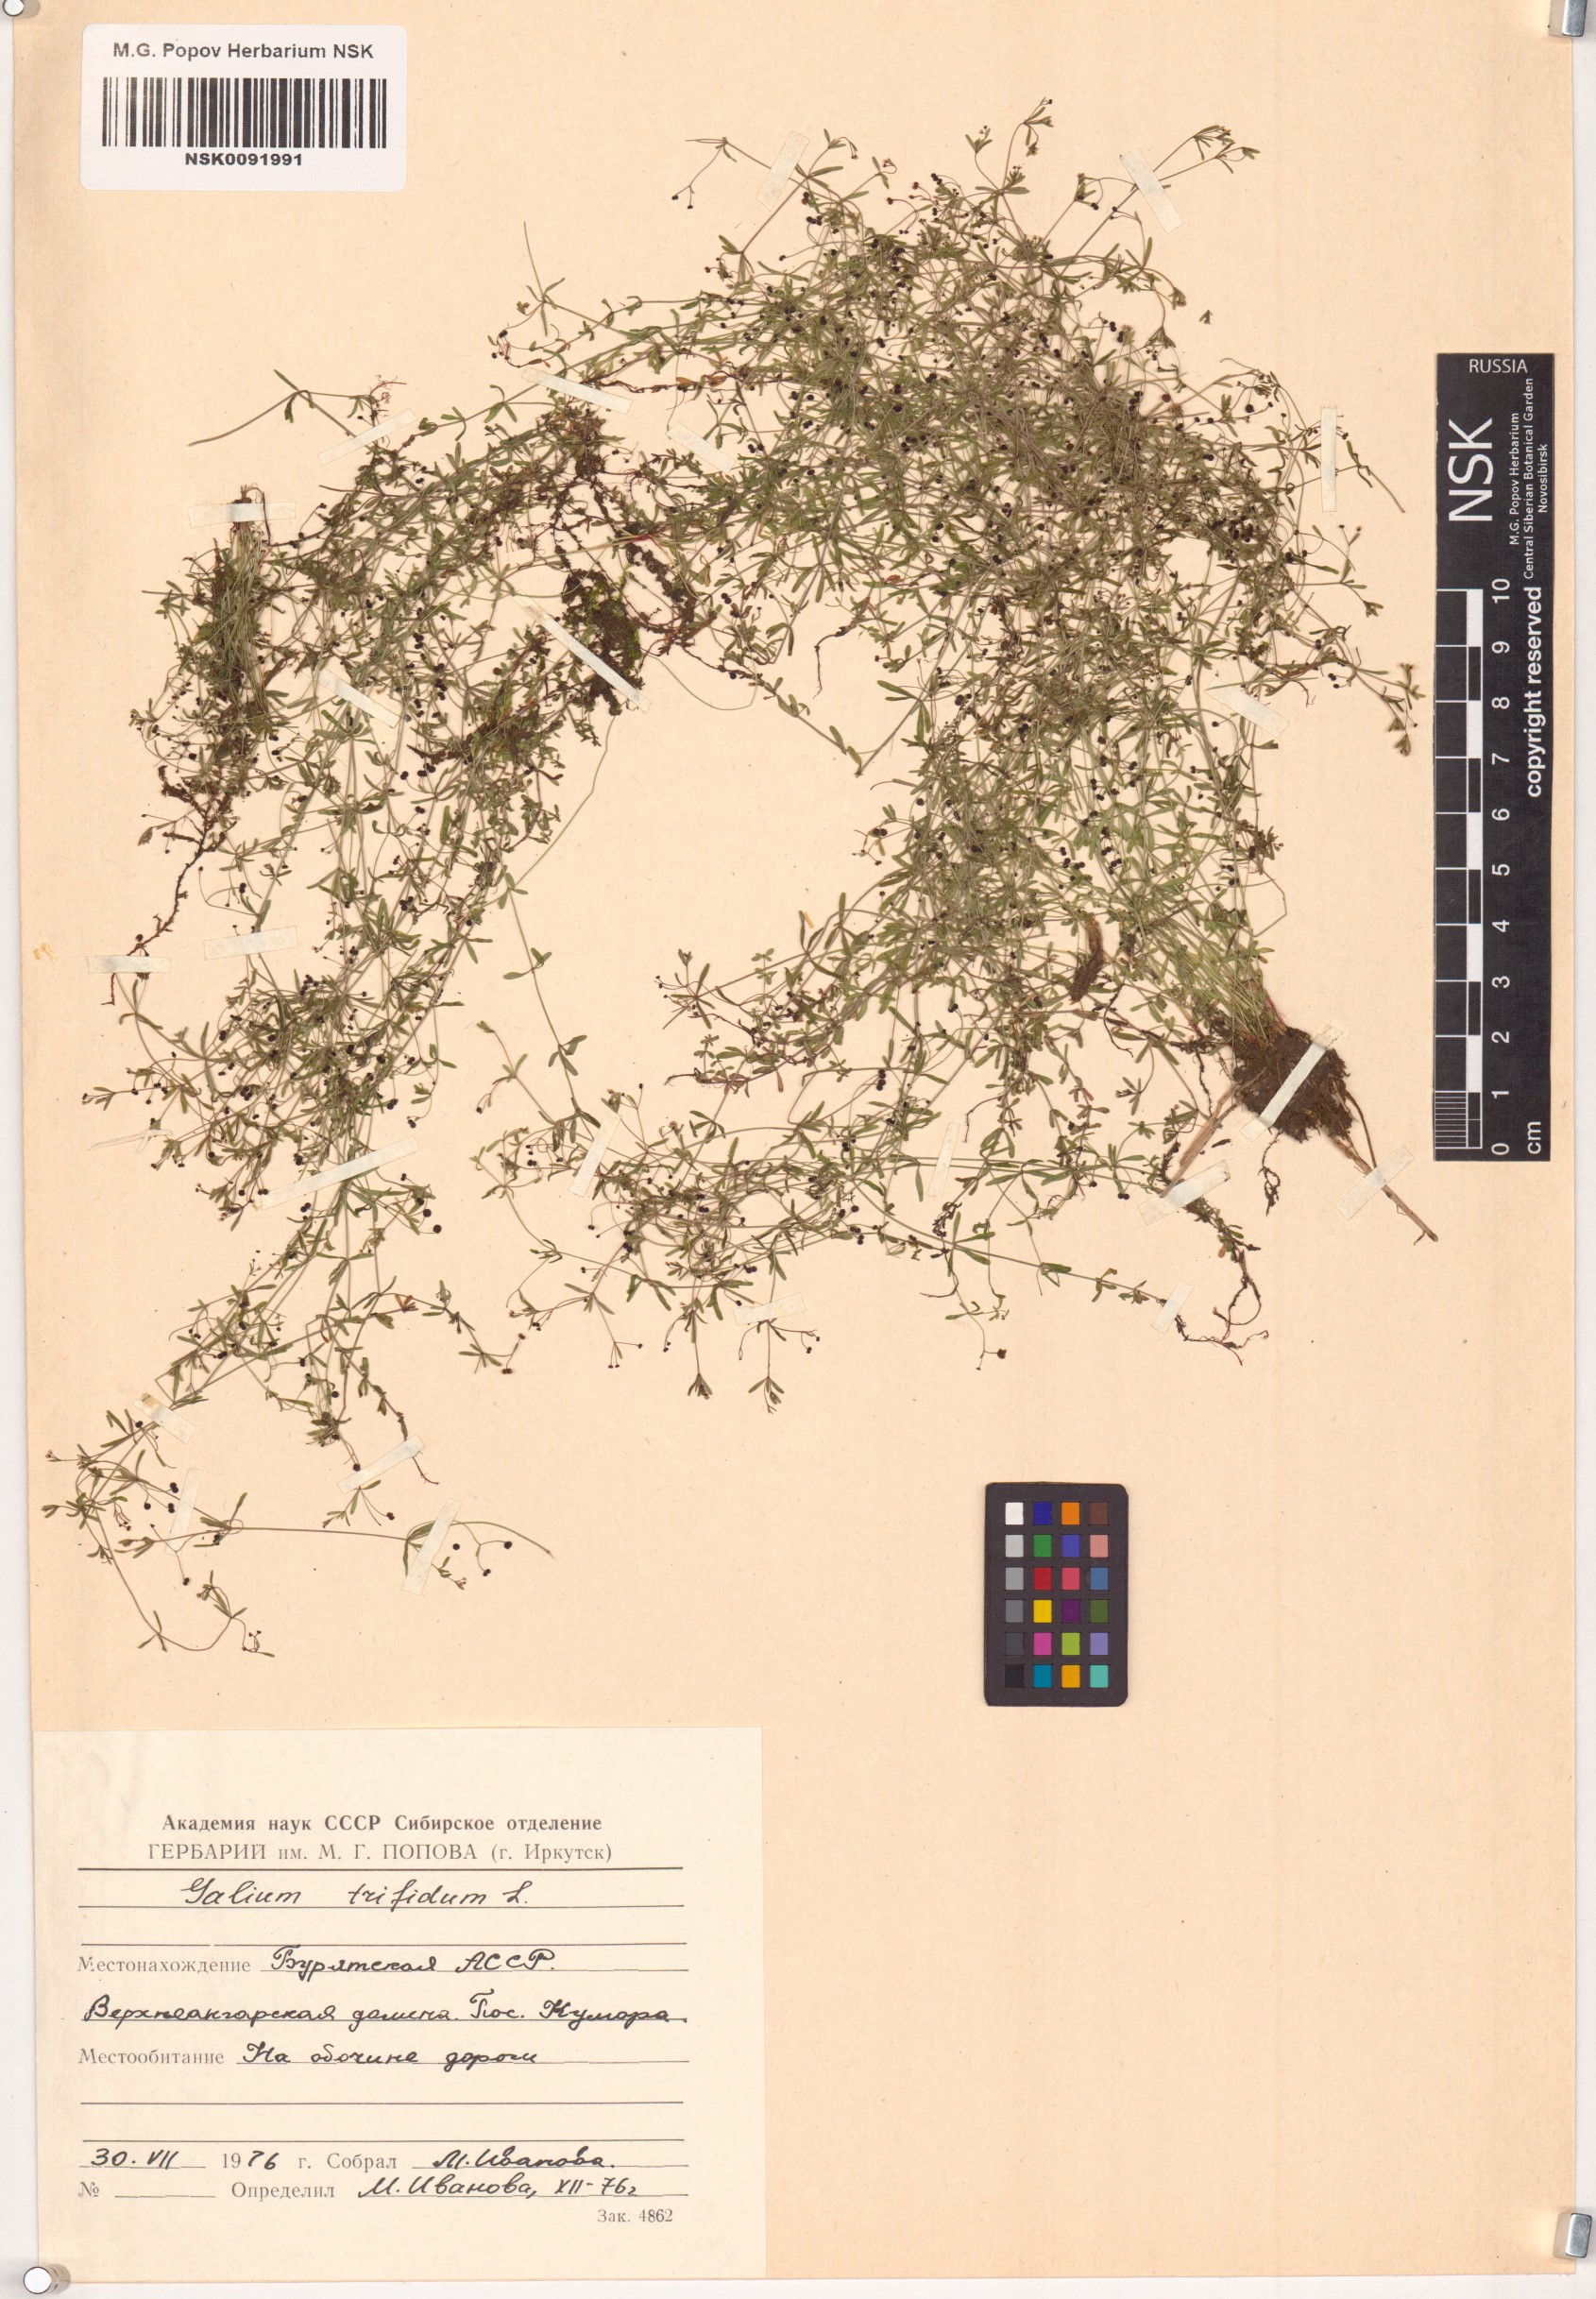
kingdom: Plantae
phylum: Tracheophyta
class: Magnoliopsida
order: Gentianales
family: Rubiaceae
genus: Galium
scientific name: Galium trifidum
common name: Small bedstraw
